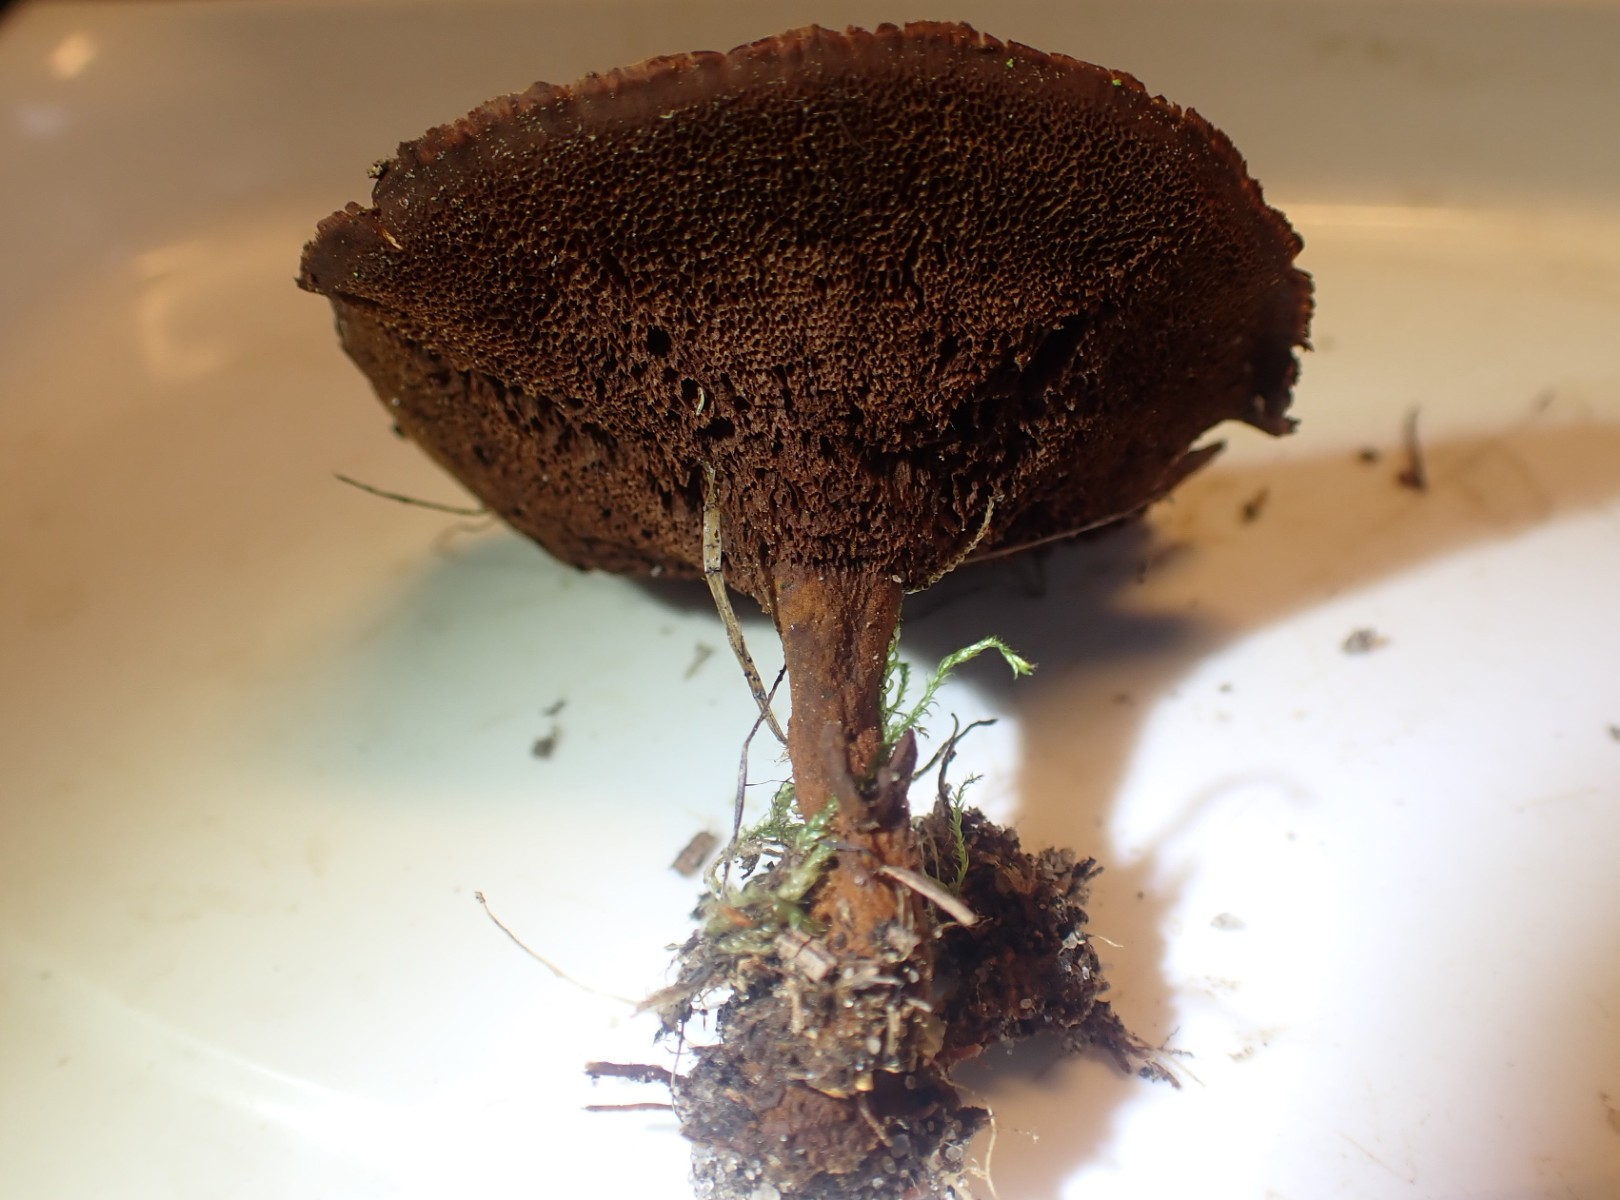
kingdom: Fungi
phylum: Basidiomycota
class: Agaricomycetes
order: Hymenochaetales
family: Hymenochaetaceae
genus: Coltricia
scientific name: Coltricia perennis
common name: almindelig sandporesvamp
